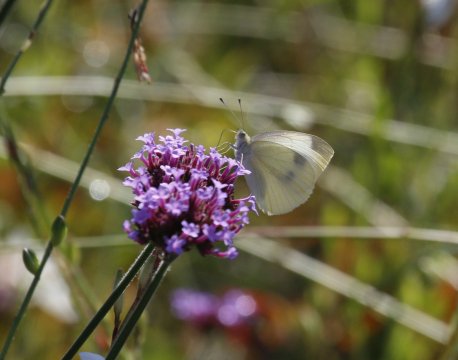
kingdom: Animalia
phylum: Arthropoda
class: Insecta
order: Lepidoptera
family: Pieridae
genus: Pieris
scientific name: Pieris rapae
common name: Cabbage White
